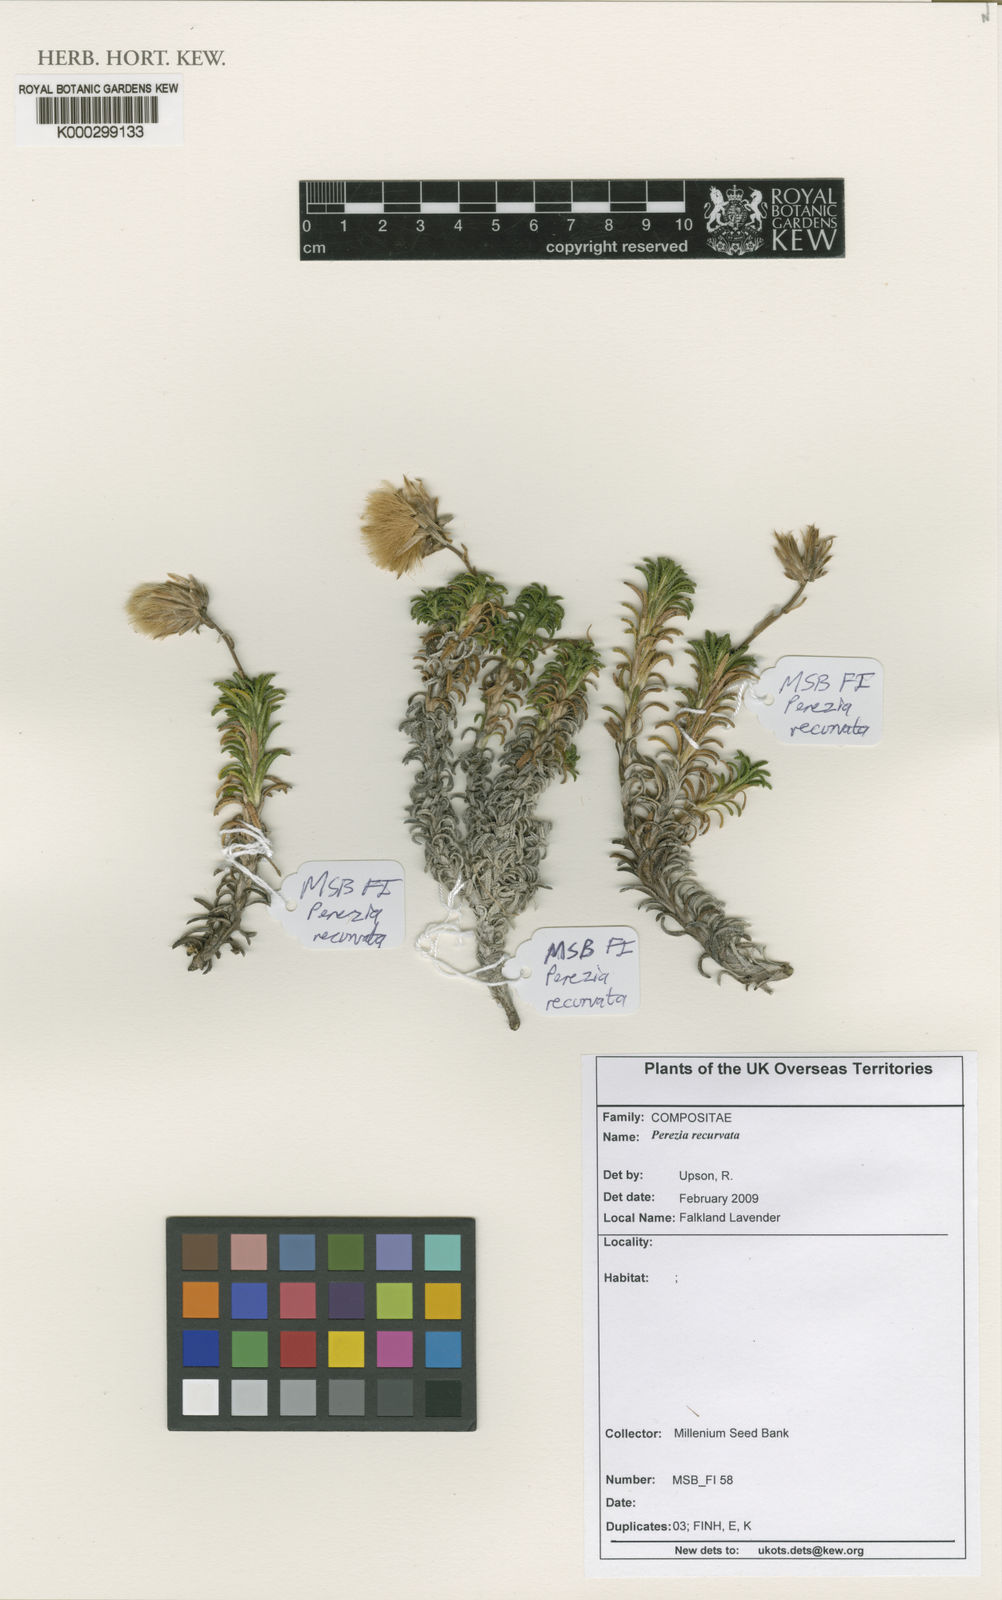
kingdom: Plantae
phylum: Tracheophyta
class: Magnoliopsida
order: Asterales
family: Asteraceae
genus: Perezia
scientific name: Perezia recurvata
